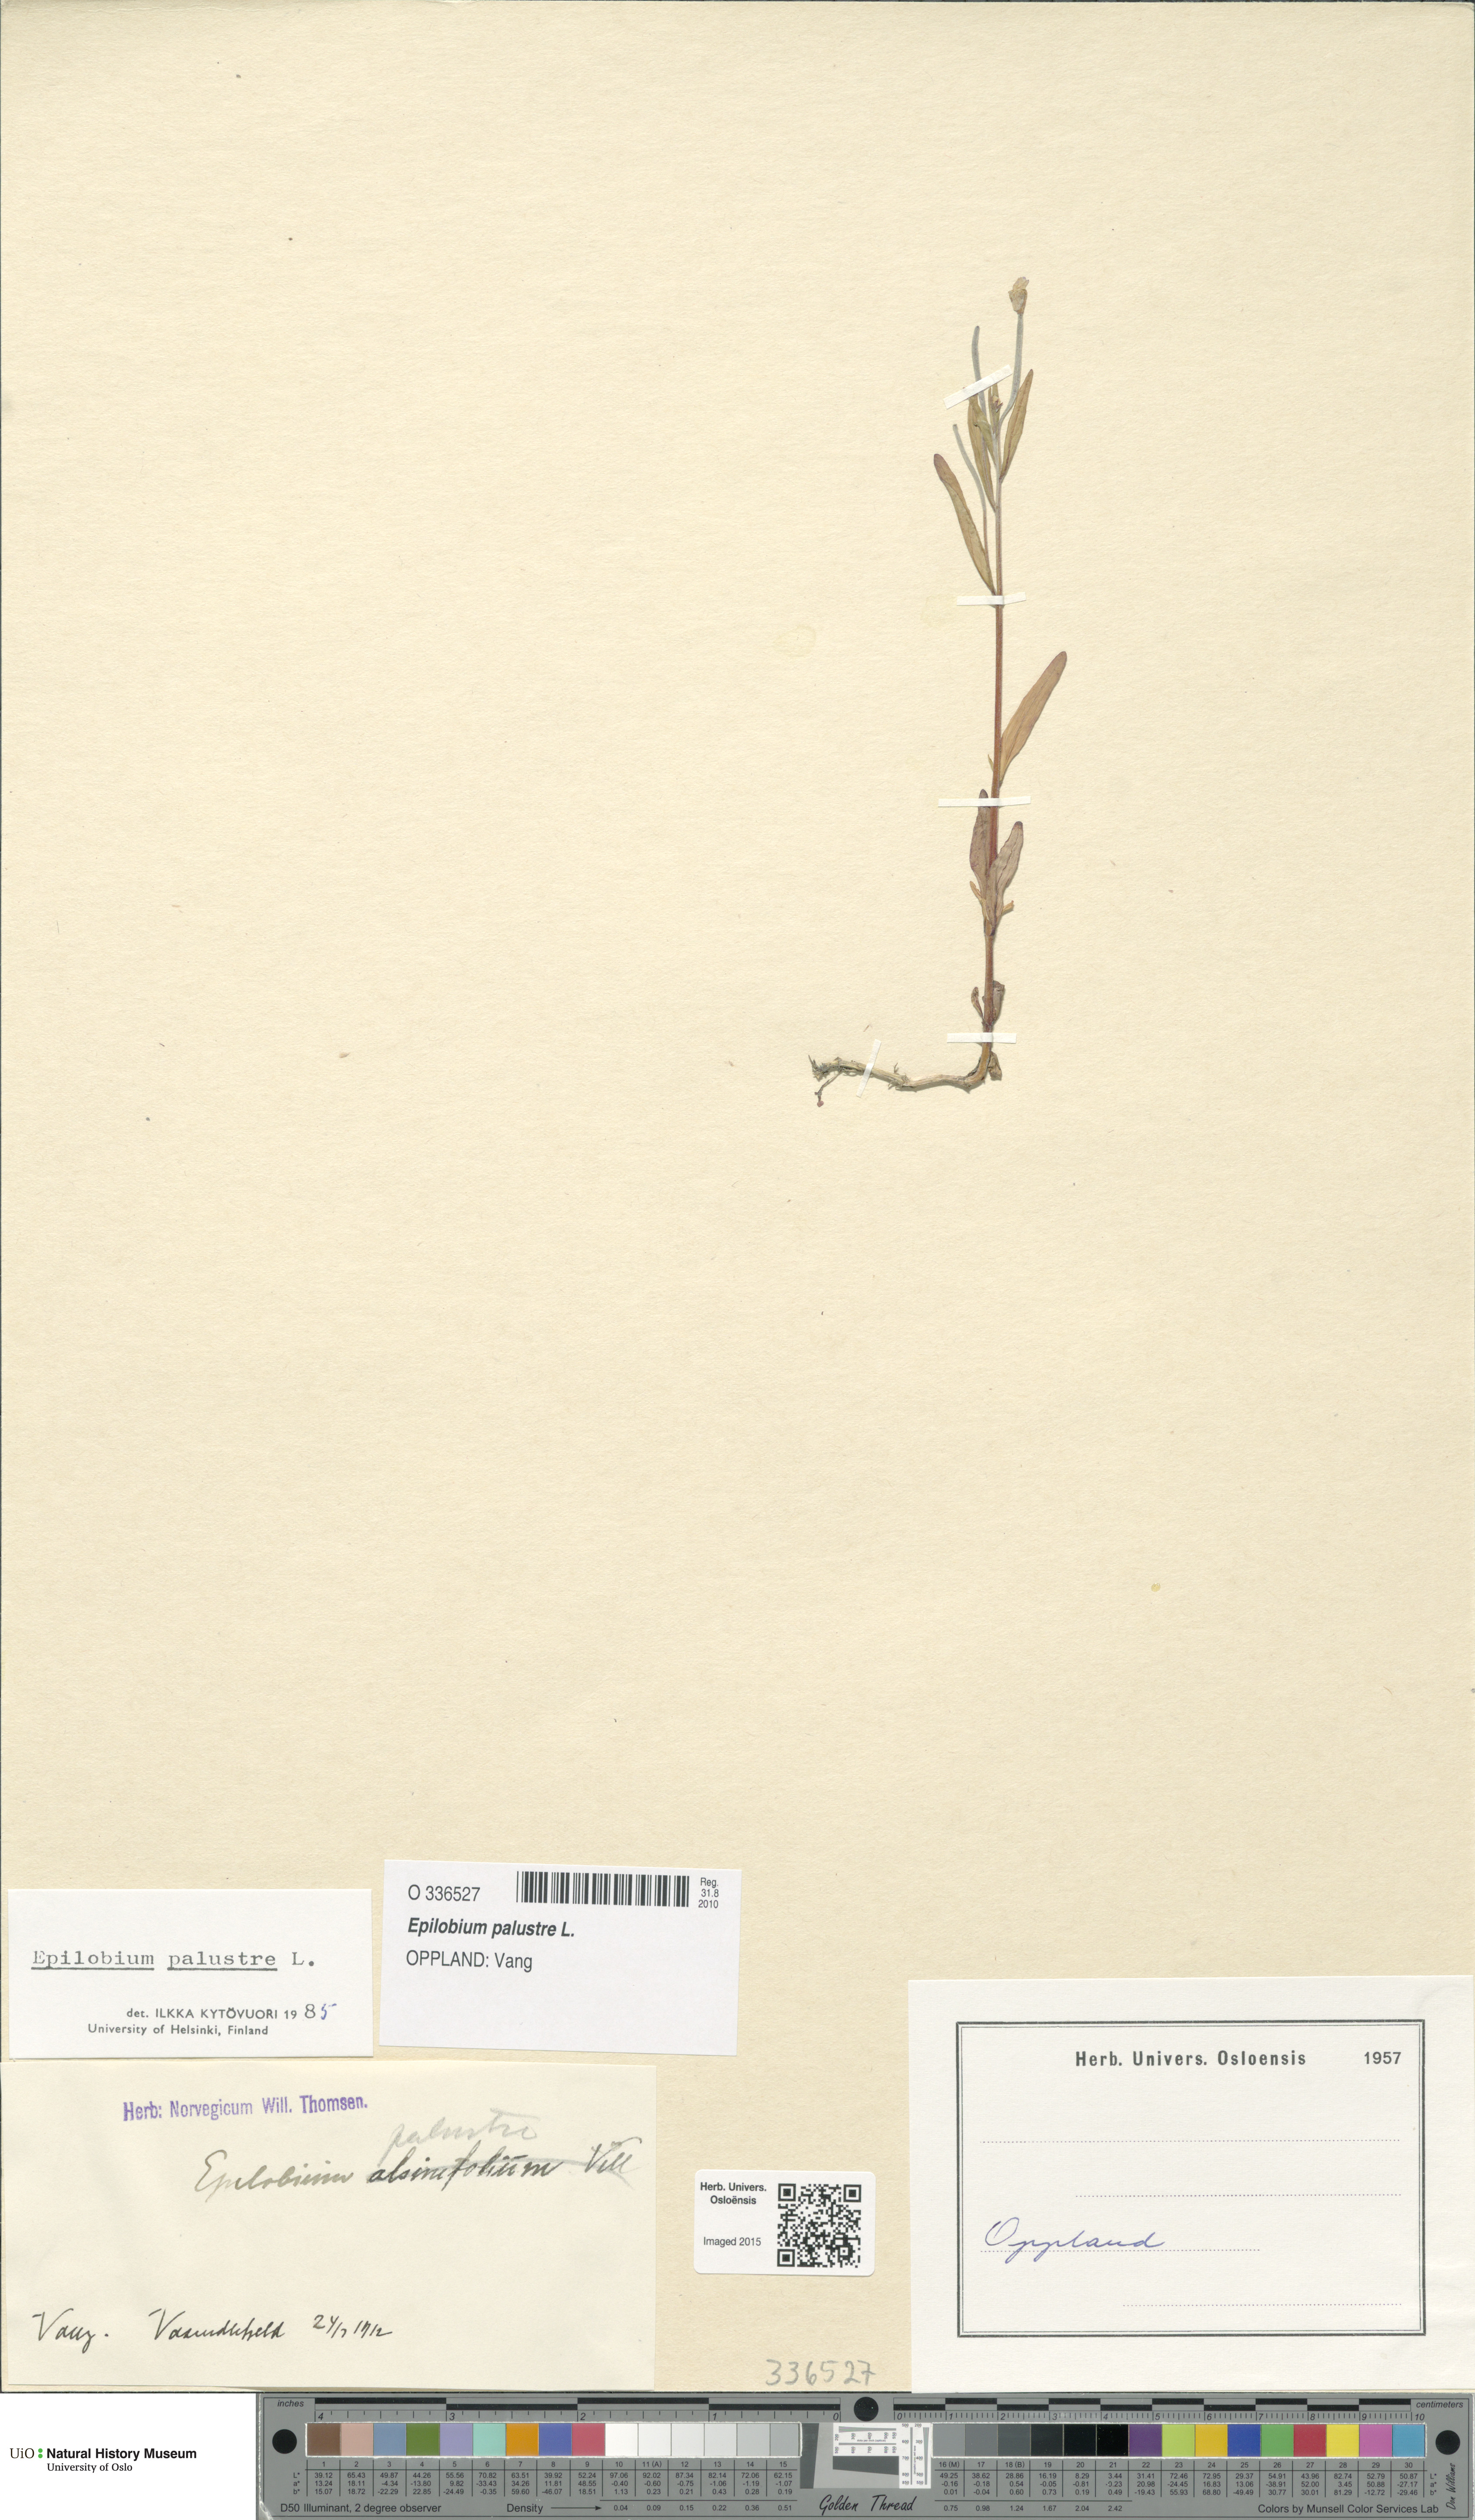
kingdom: Plantae
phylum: Tracheophyta
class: Magnoliopsida
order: Myrtales
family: Onagraceae
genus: Epilobium
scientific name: Epilobium palustre
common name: Marsh willowherb
